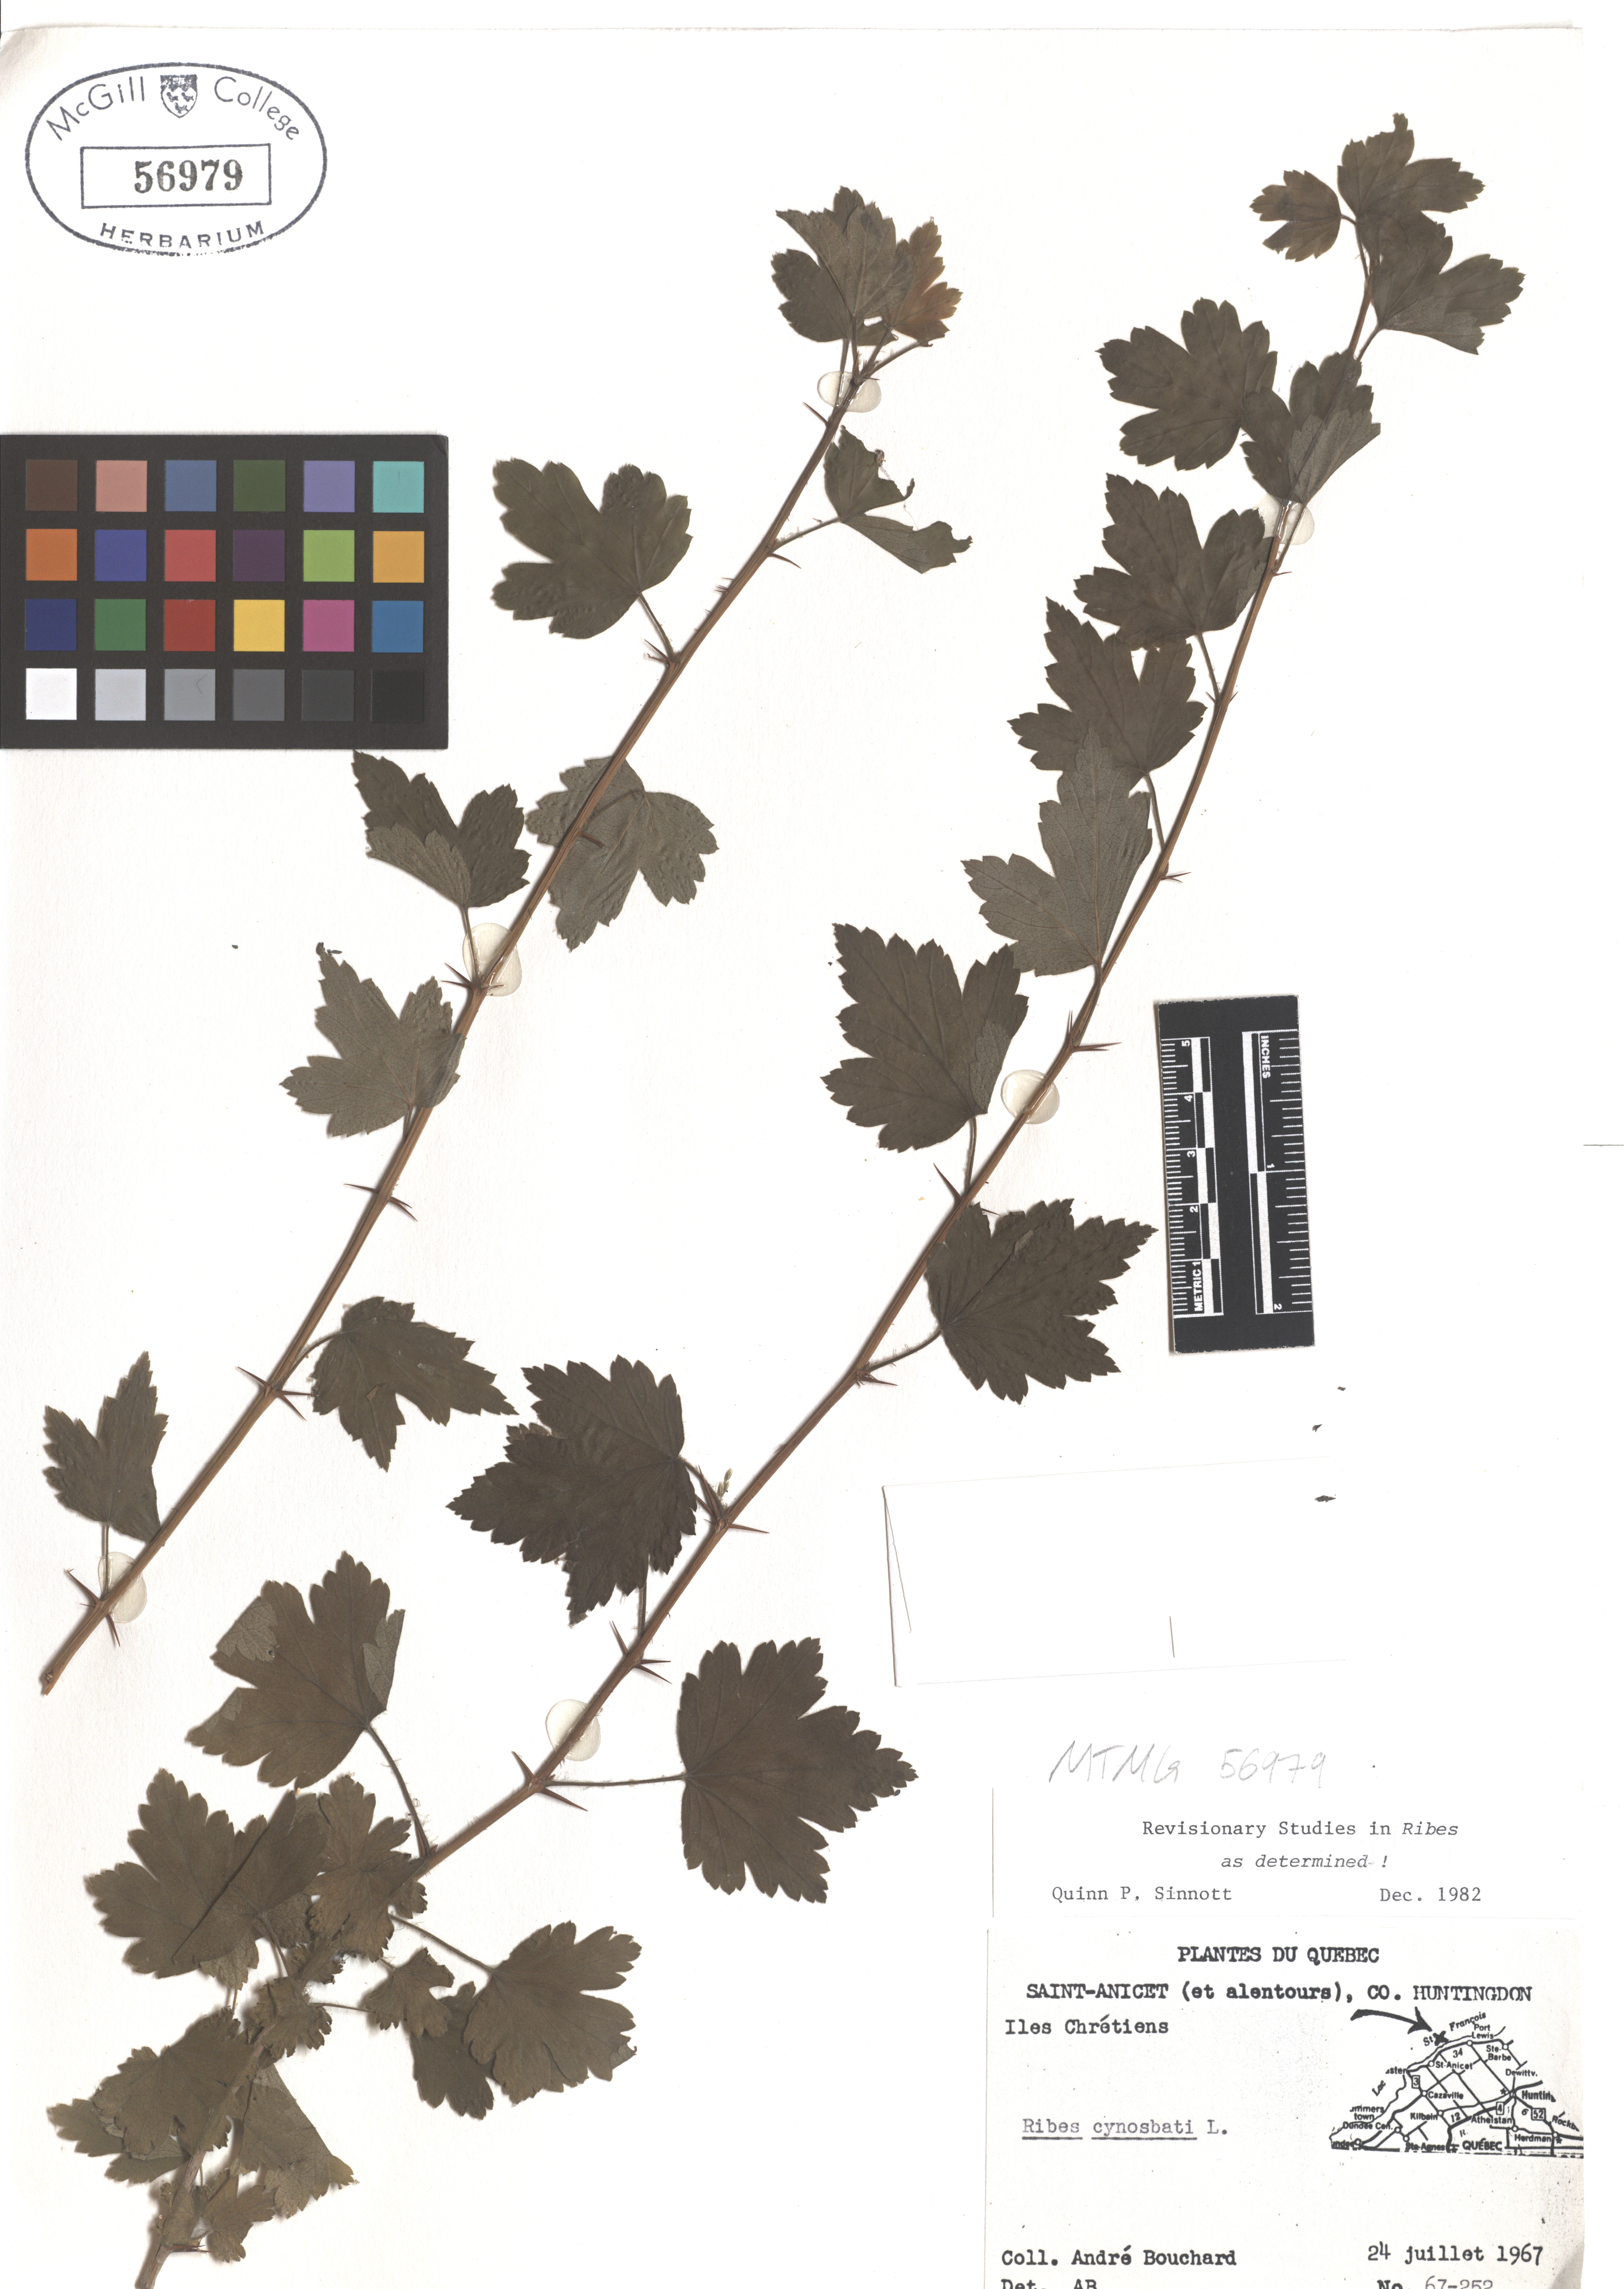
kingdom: Plantae
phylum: Tracheophyta
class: Magnoliopsida
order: Saxifragales
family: Grossulariaceae
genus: Ribes
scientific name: Ribes cynosbati
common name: American gooseberry
